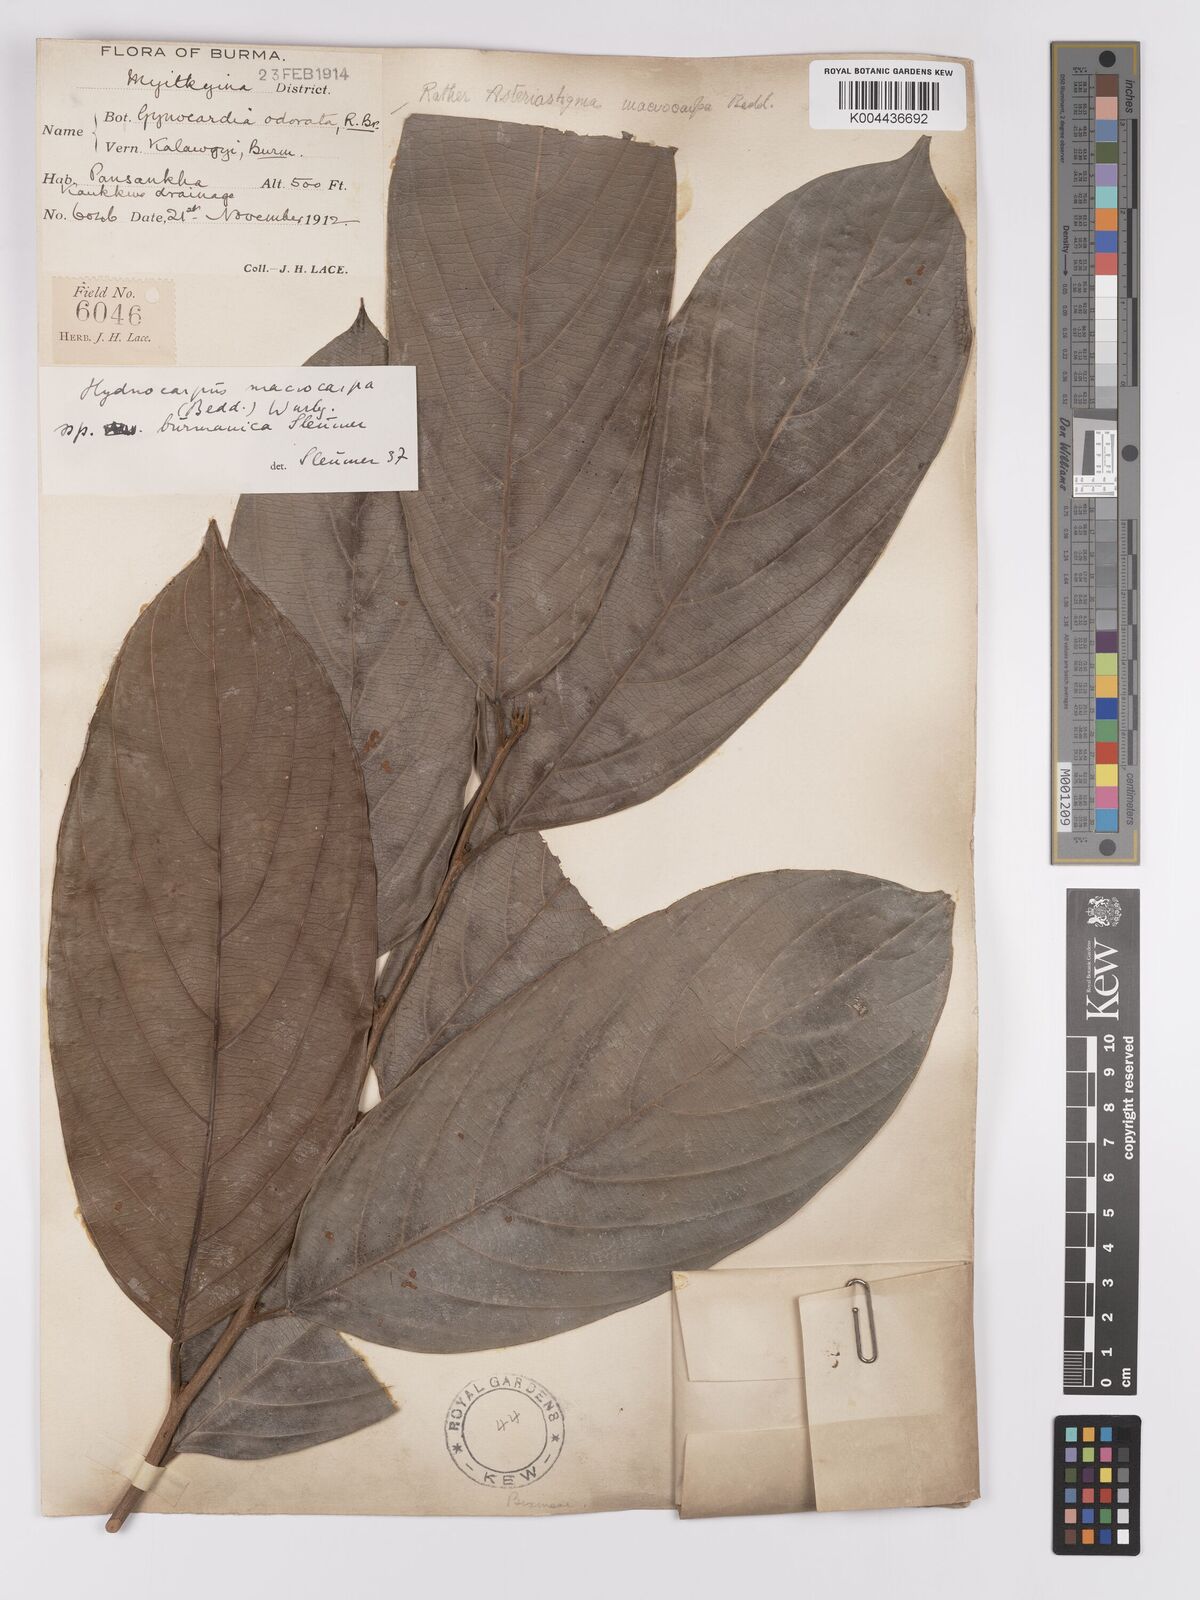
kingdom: Plantae
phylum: Tracheophyta
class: Magnoliopsida
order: Malpighiales
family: Achariaceae
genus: Hydnocarpus
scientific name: Hydnocarpus macrocarpus
